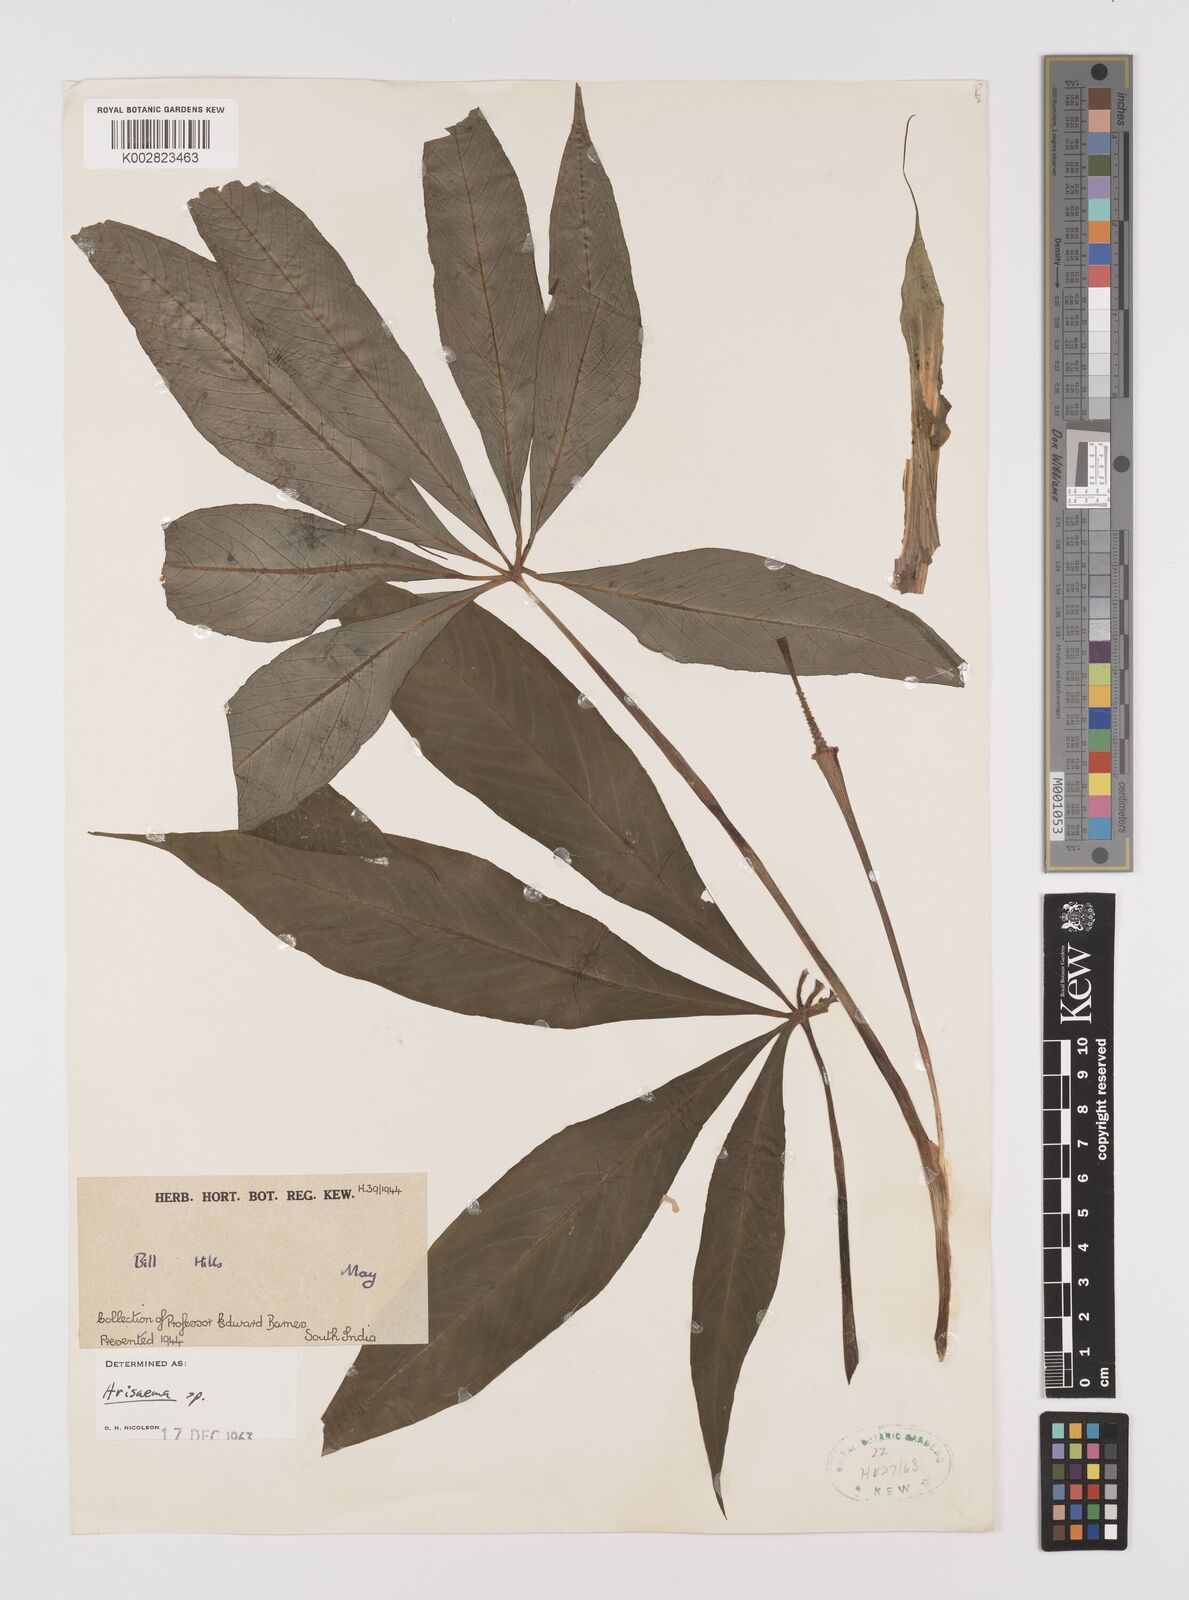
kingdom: Plantae
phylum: Tracheophyta
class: Liliopsida
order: Alismatales
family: Araceae
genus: Arisaema
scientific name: Arisaema
